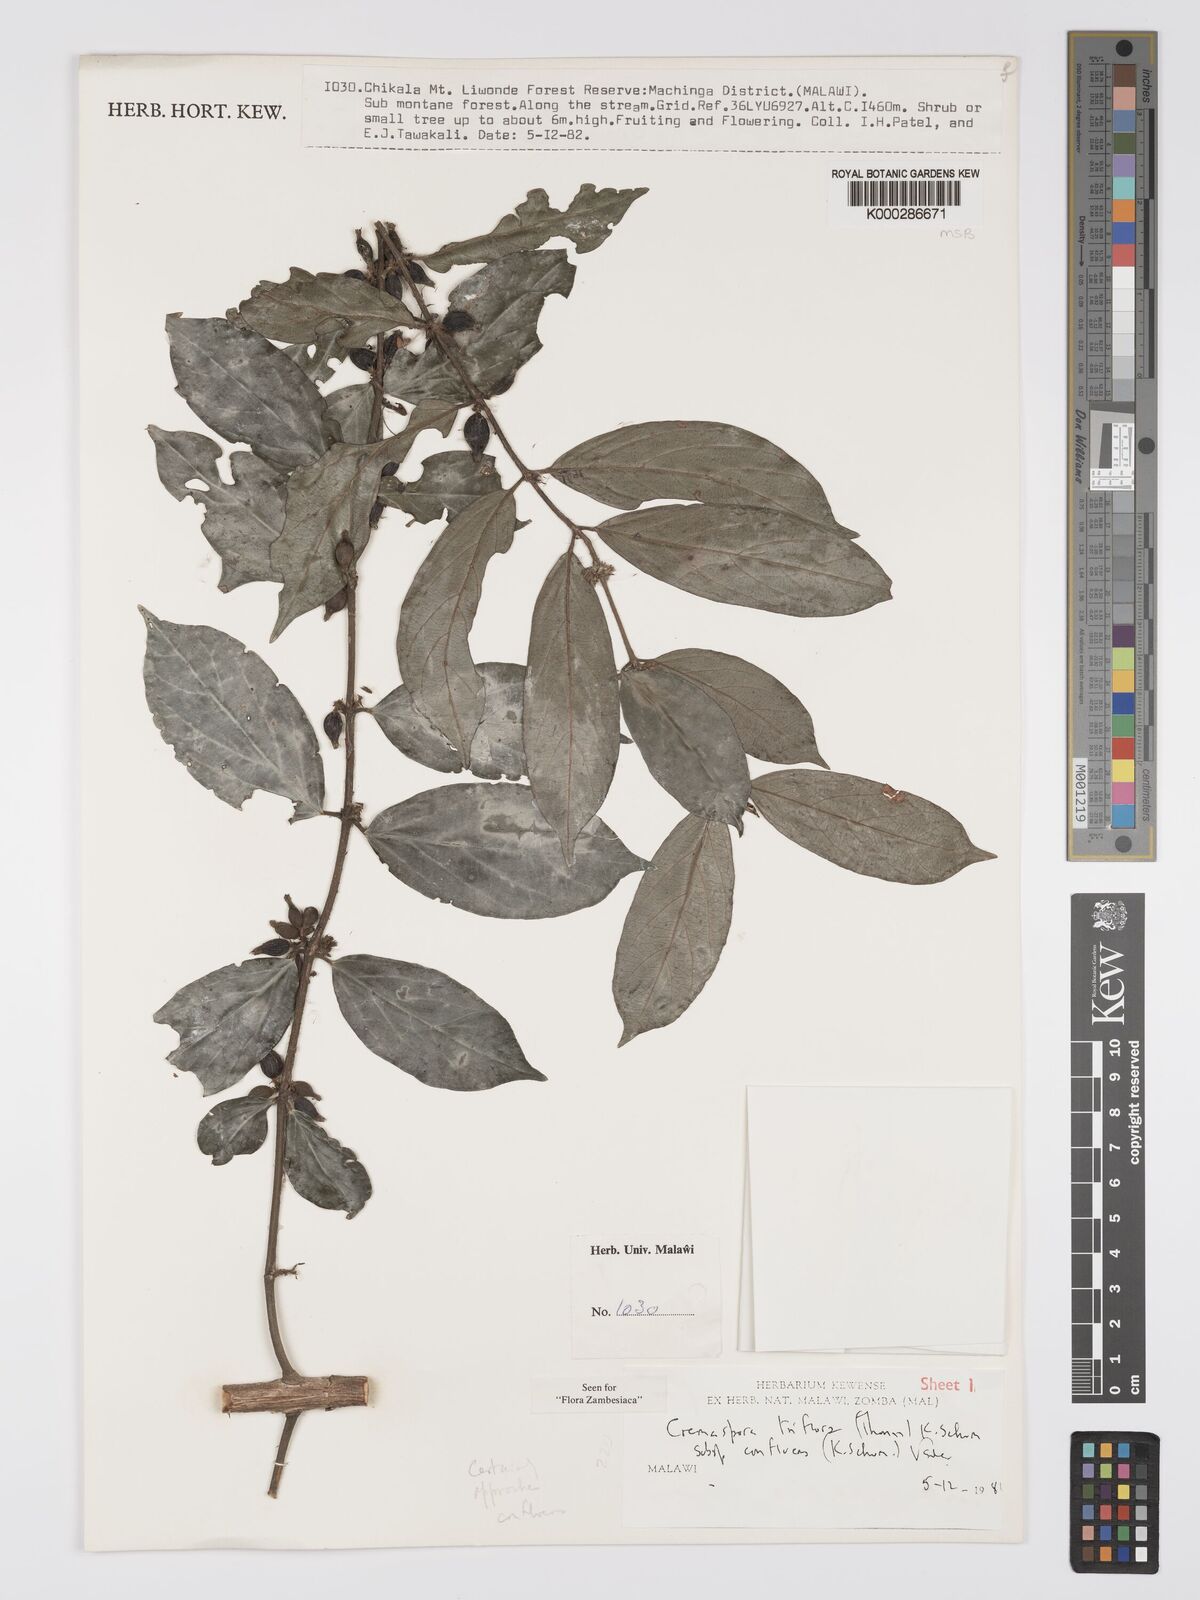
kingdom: Plantae
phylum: Tracheophyta
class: Magnoliopsida
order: Gentianales
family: Rubiaceae
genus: Cremaspora
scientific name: Cremaspora triflora
